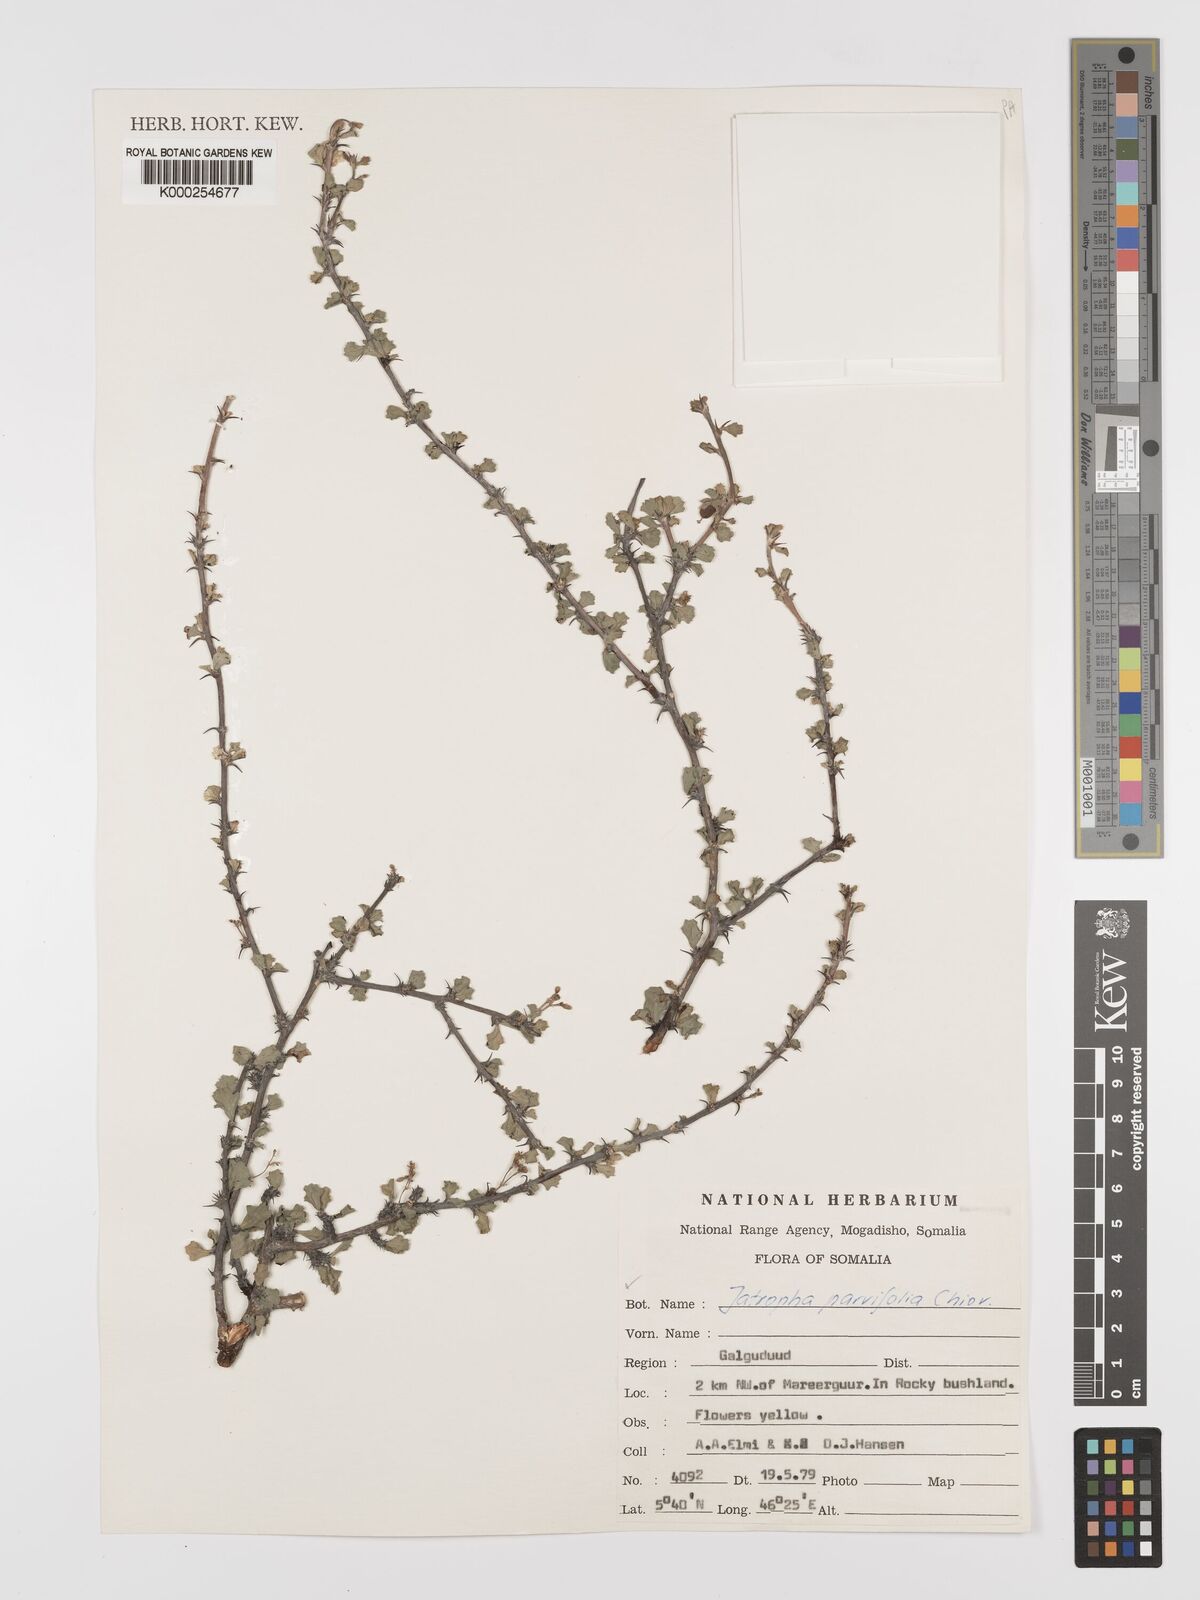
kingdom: Plantae
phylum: Tracheophyta
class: Magnoliopsida
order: Malpighiales
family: Euphorbiaceae
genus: Jatropha
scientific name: Jatropha rivae
